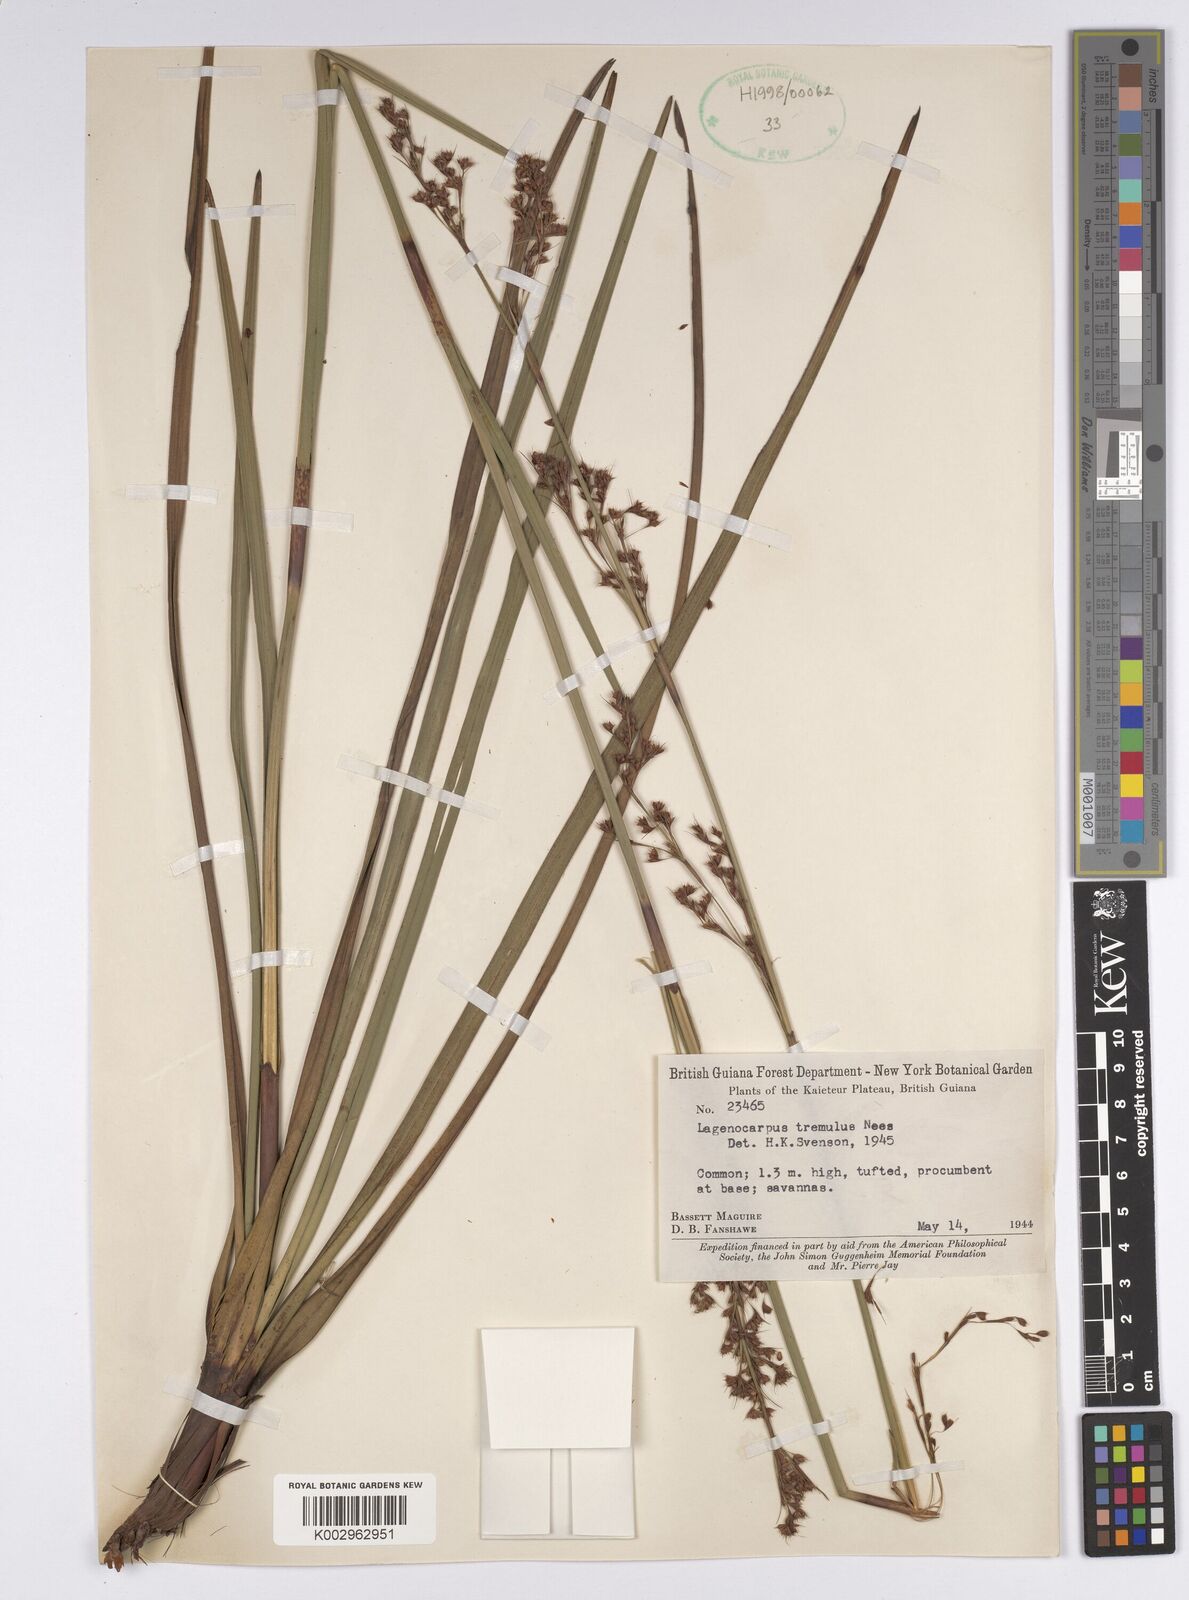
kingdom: Plantae
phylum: Tracheophyta
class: Liliopsida
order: Poales
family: Cyperaceae
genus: Lagenocarpus
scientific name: Lagenocarpus rigidus
